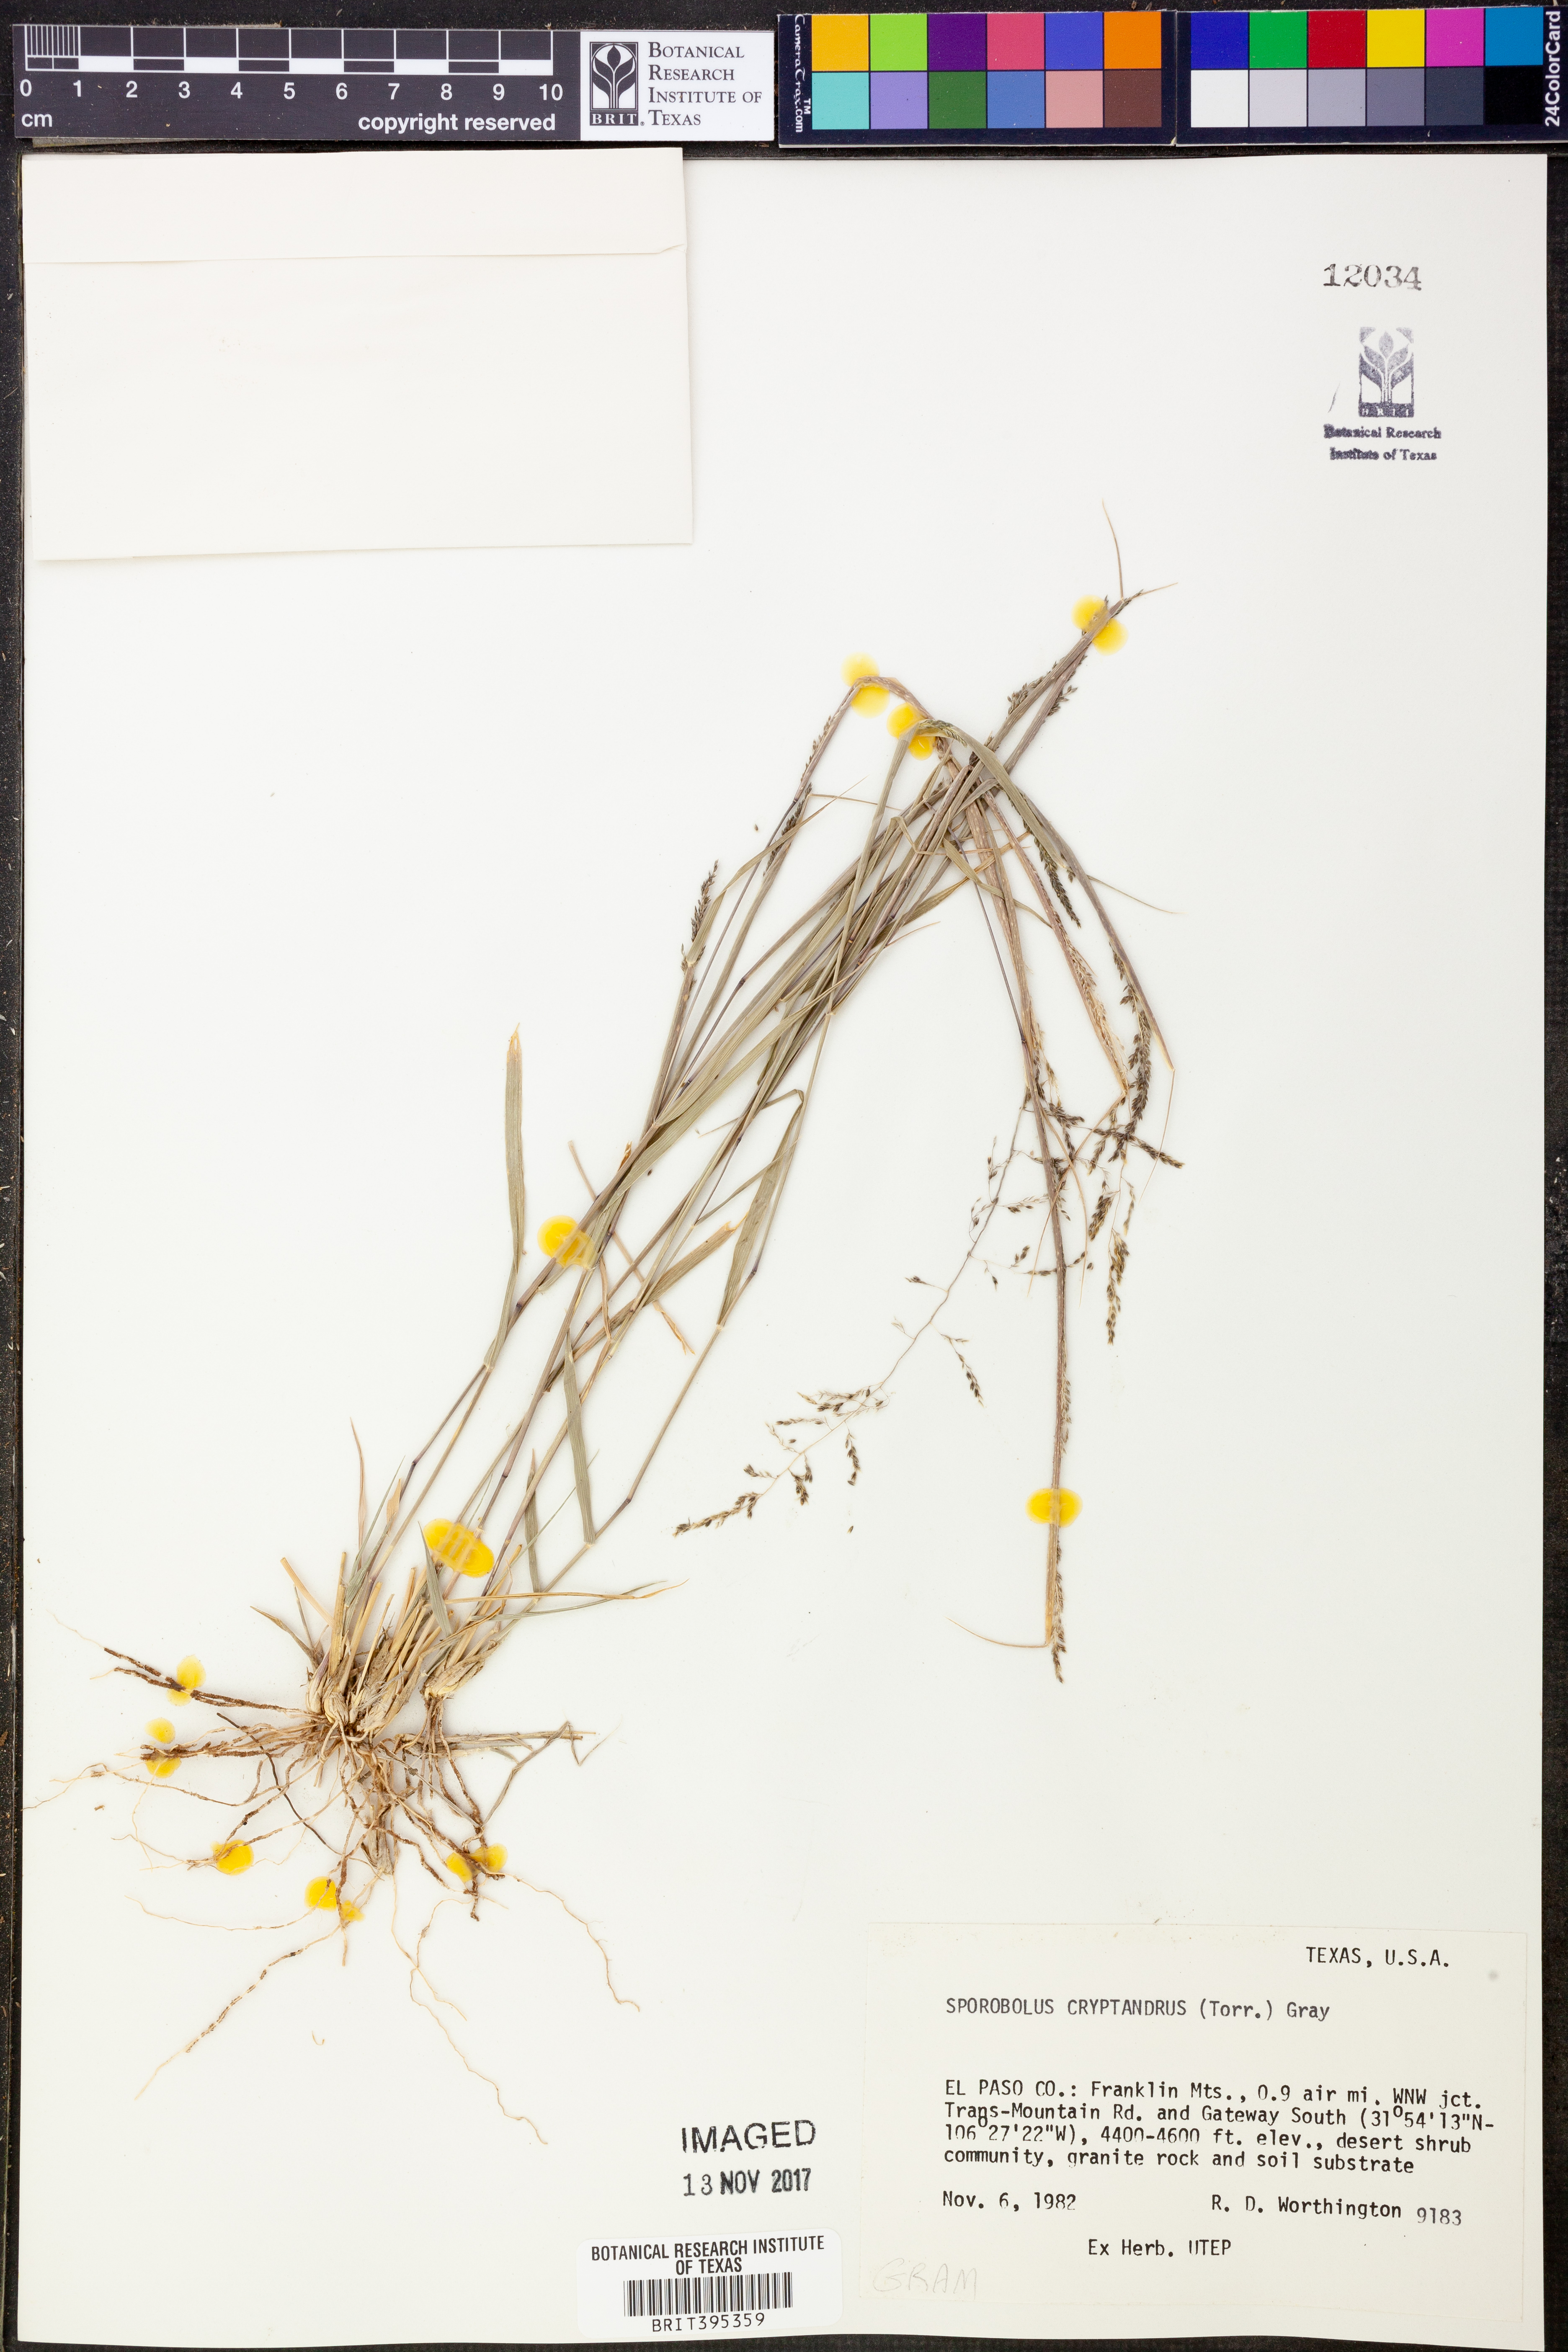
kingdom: Plantae
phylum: Tracheophyta
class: Liliopsida
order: Poales
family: Poaceae
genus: Sporobolus
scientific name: Sporobolus cryptandrus
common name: Sand dropseed
